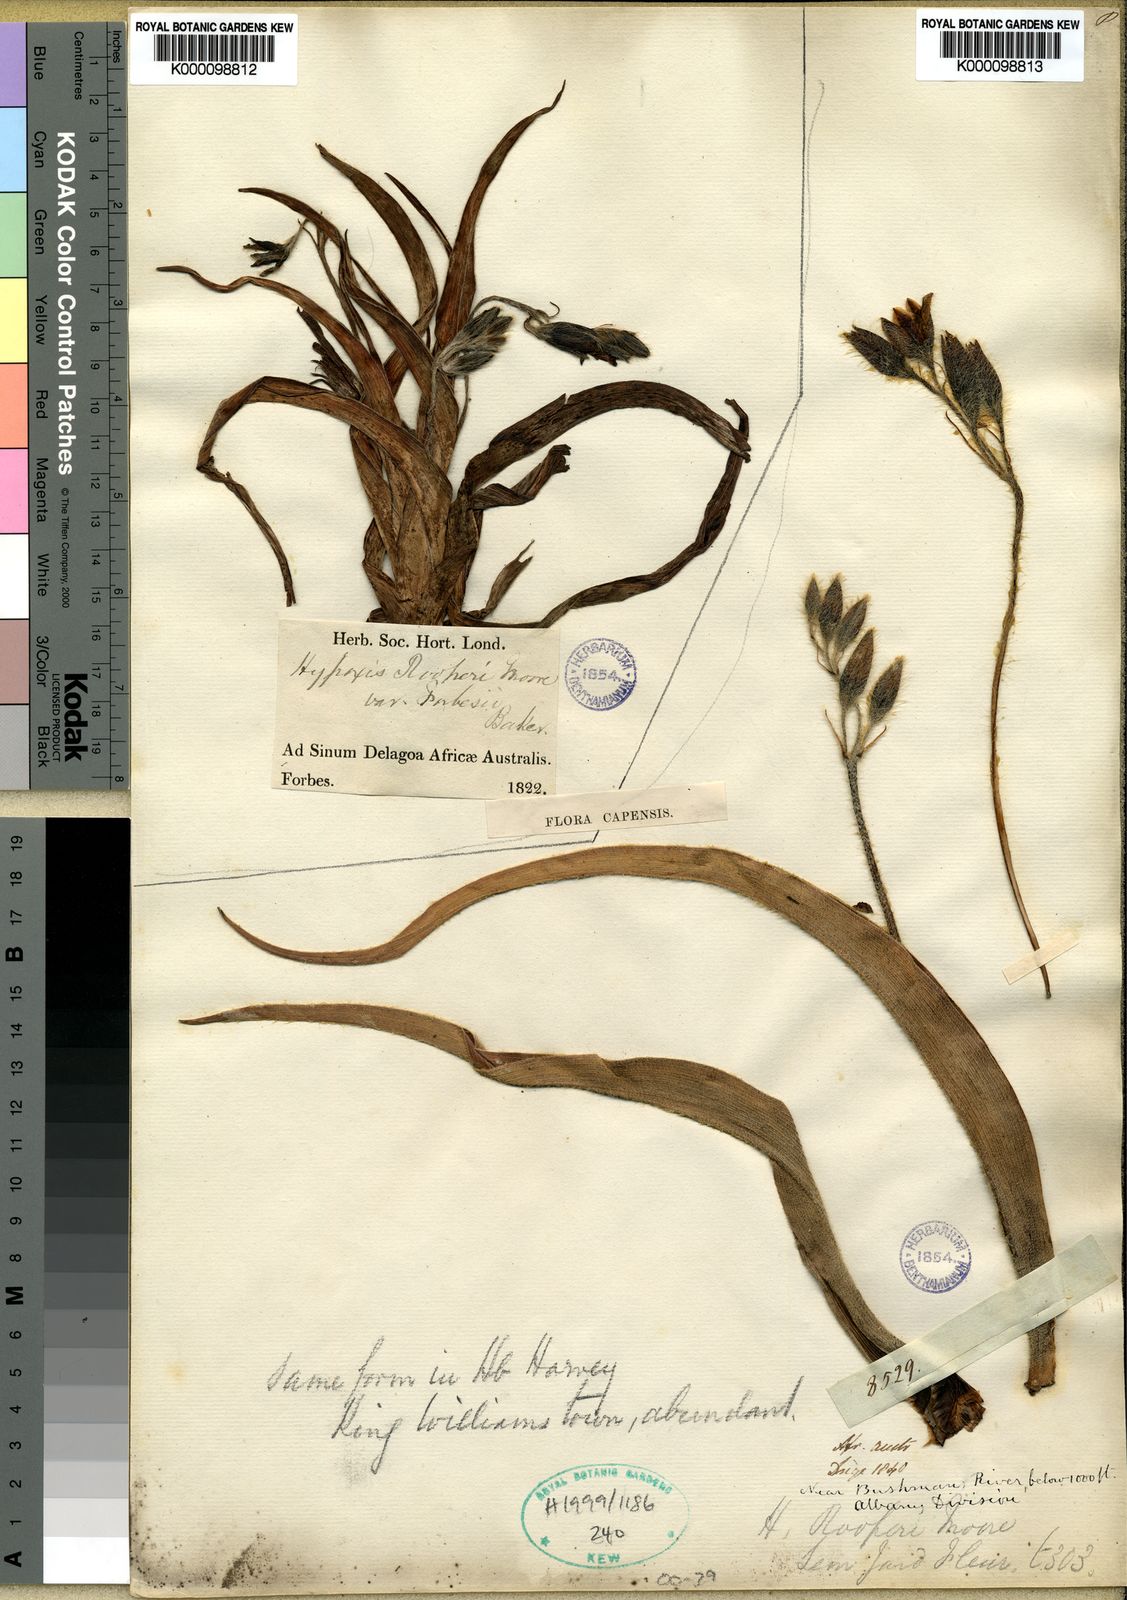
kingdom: Plantae
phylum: Tracheophyta
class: Liliopsida
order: Asparagales
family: Hypoxidaceae
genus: Hypoxis
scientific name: Hypoxis hemerocallidea
